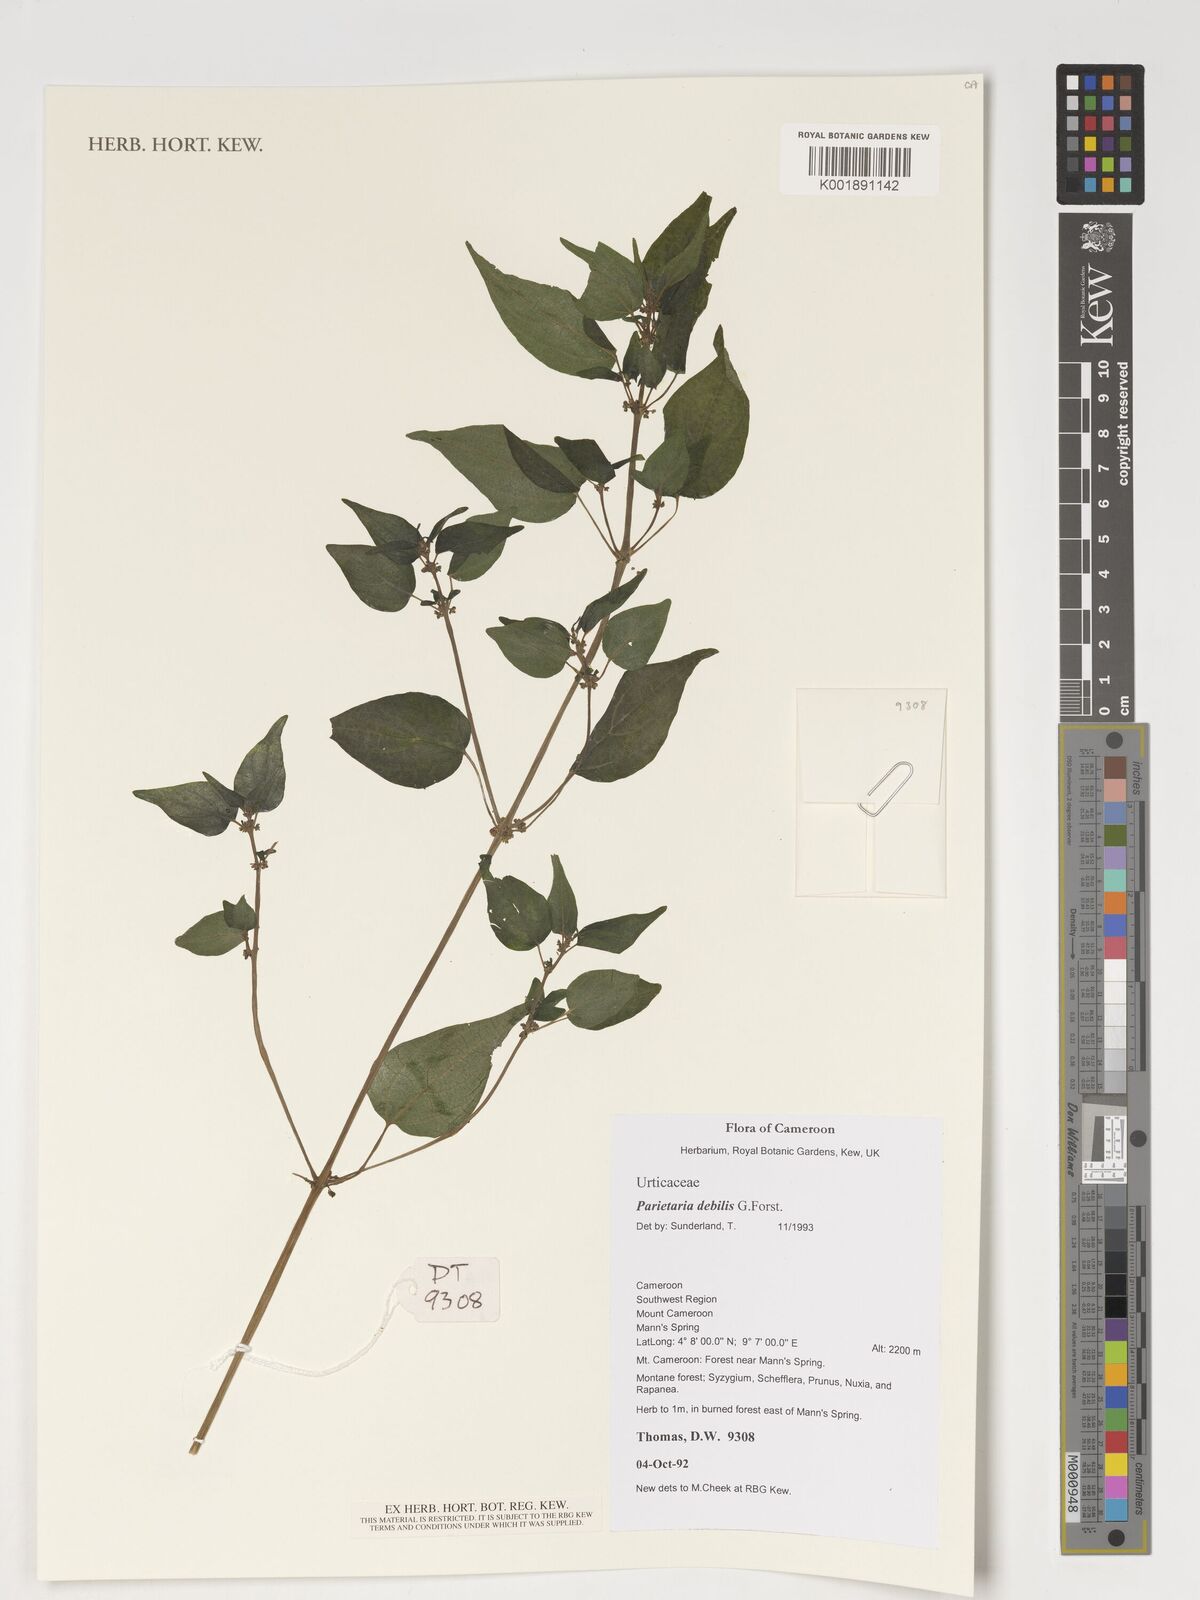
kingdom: Plantae
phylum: Tracheophyta
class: Magnoliopsida
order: Rosales
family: Urticaceae
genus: Parietaria
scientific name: Parietaria debilis
